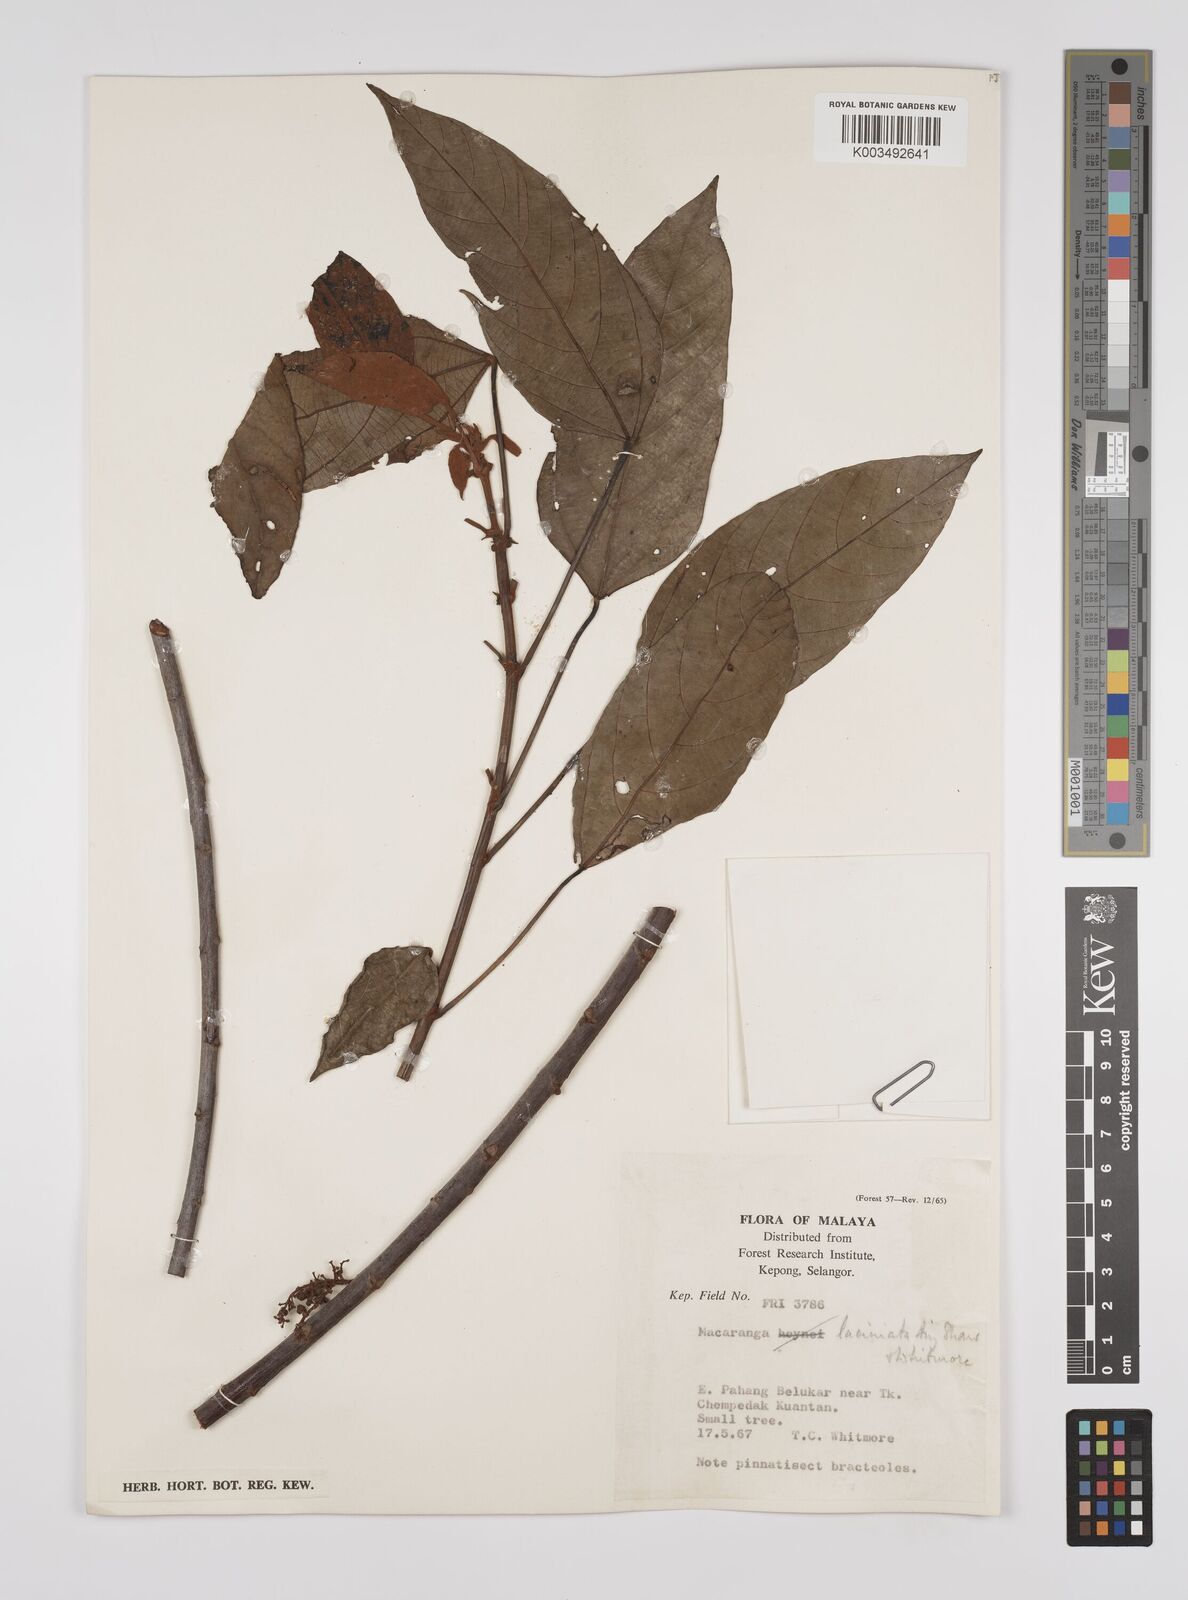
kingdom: Plantae
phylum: Tracheophyta
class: Magnoliopsida
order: Malpighiales
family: Euphorbiaceae
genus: Macaranga
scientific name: Macaranga laciniata
